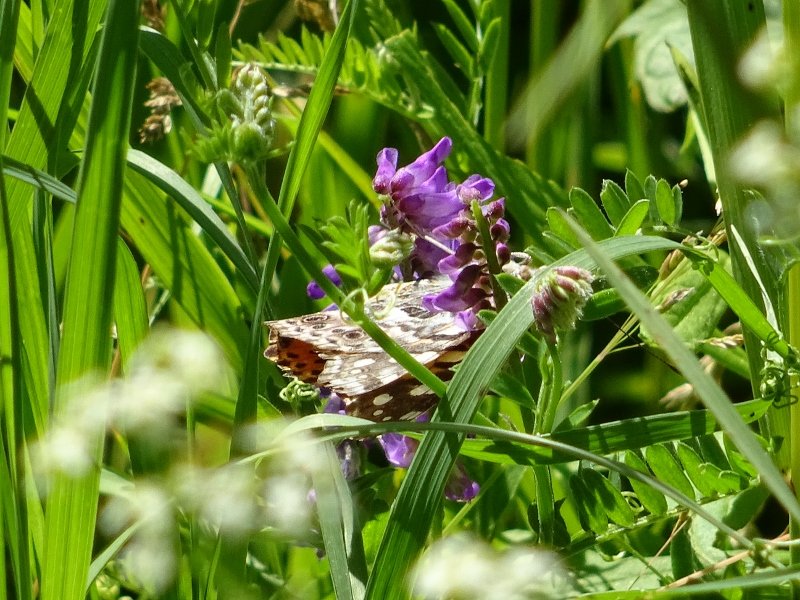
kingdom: Animalia
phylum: Arthropoda
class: Insecta
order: Lepidoptera
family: Nymphalidae
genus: Vanessa
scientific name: Vanessa cardui
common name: Painted Lady
